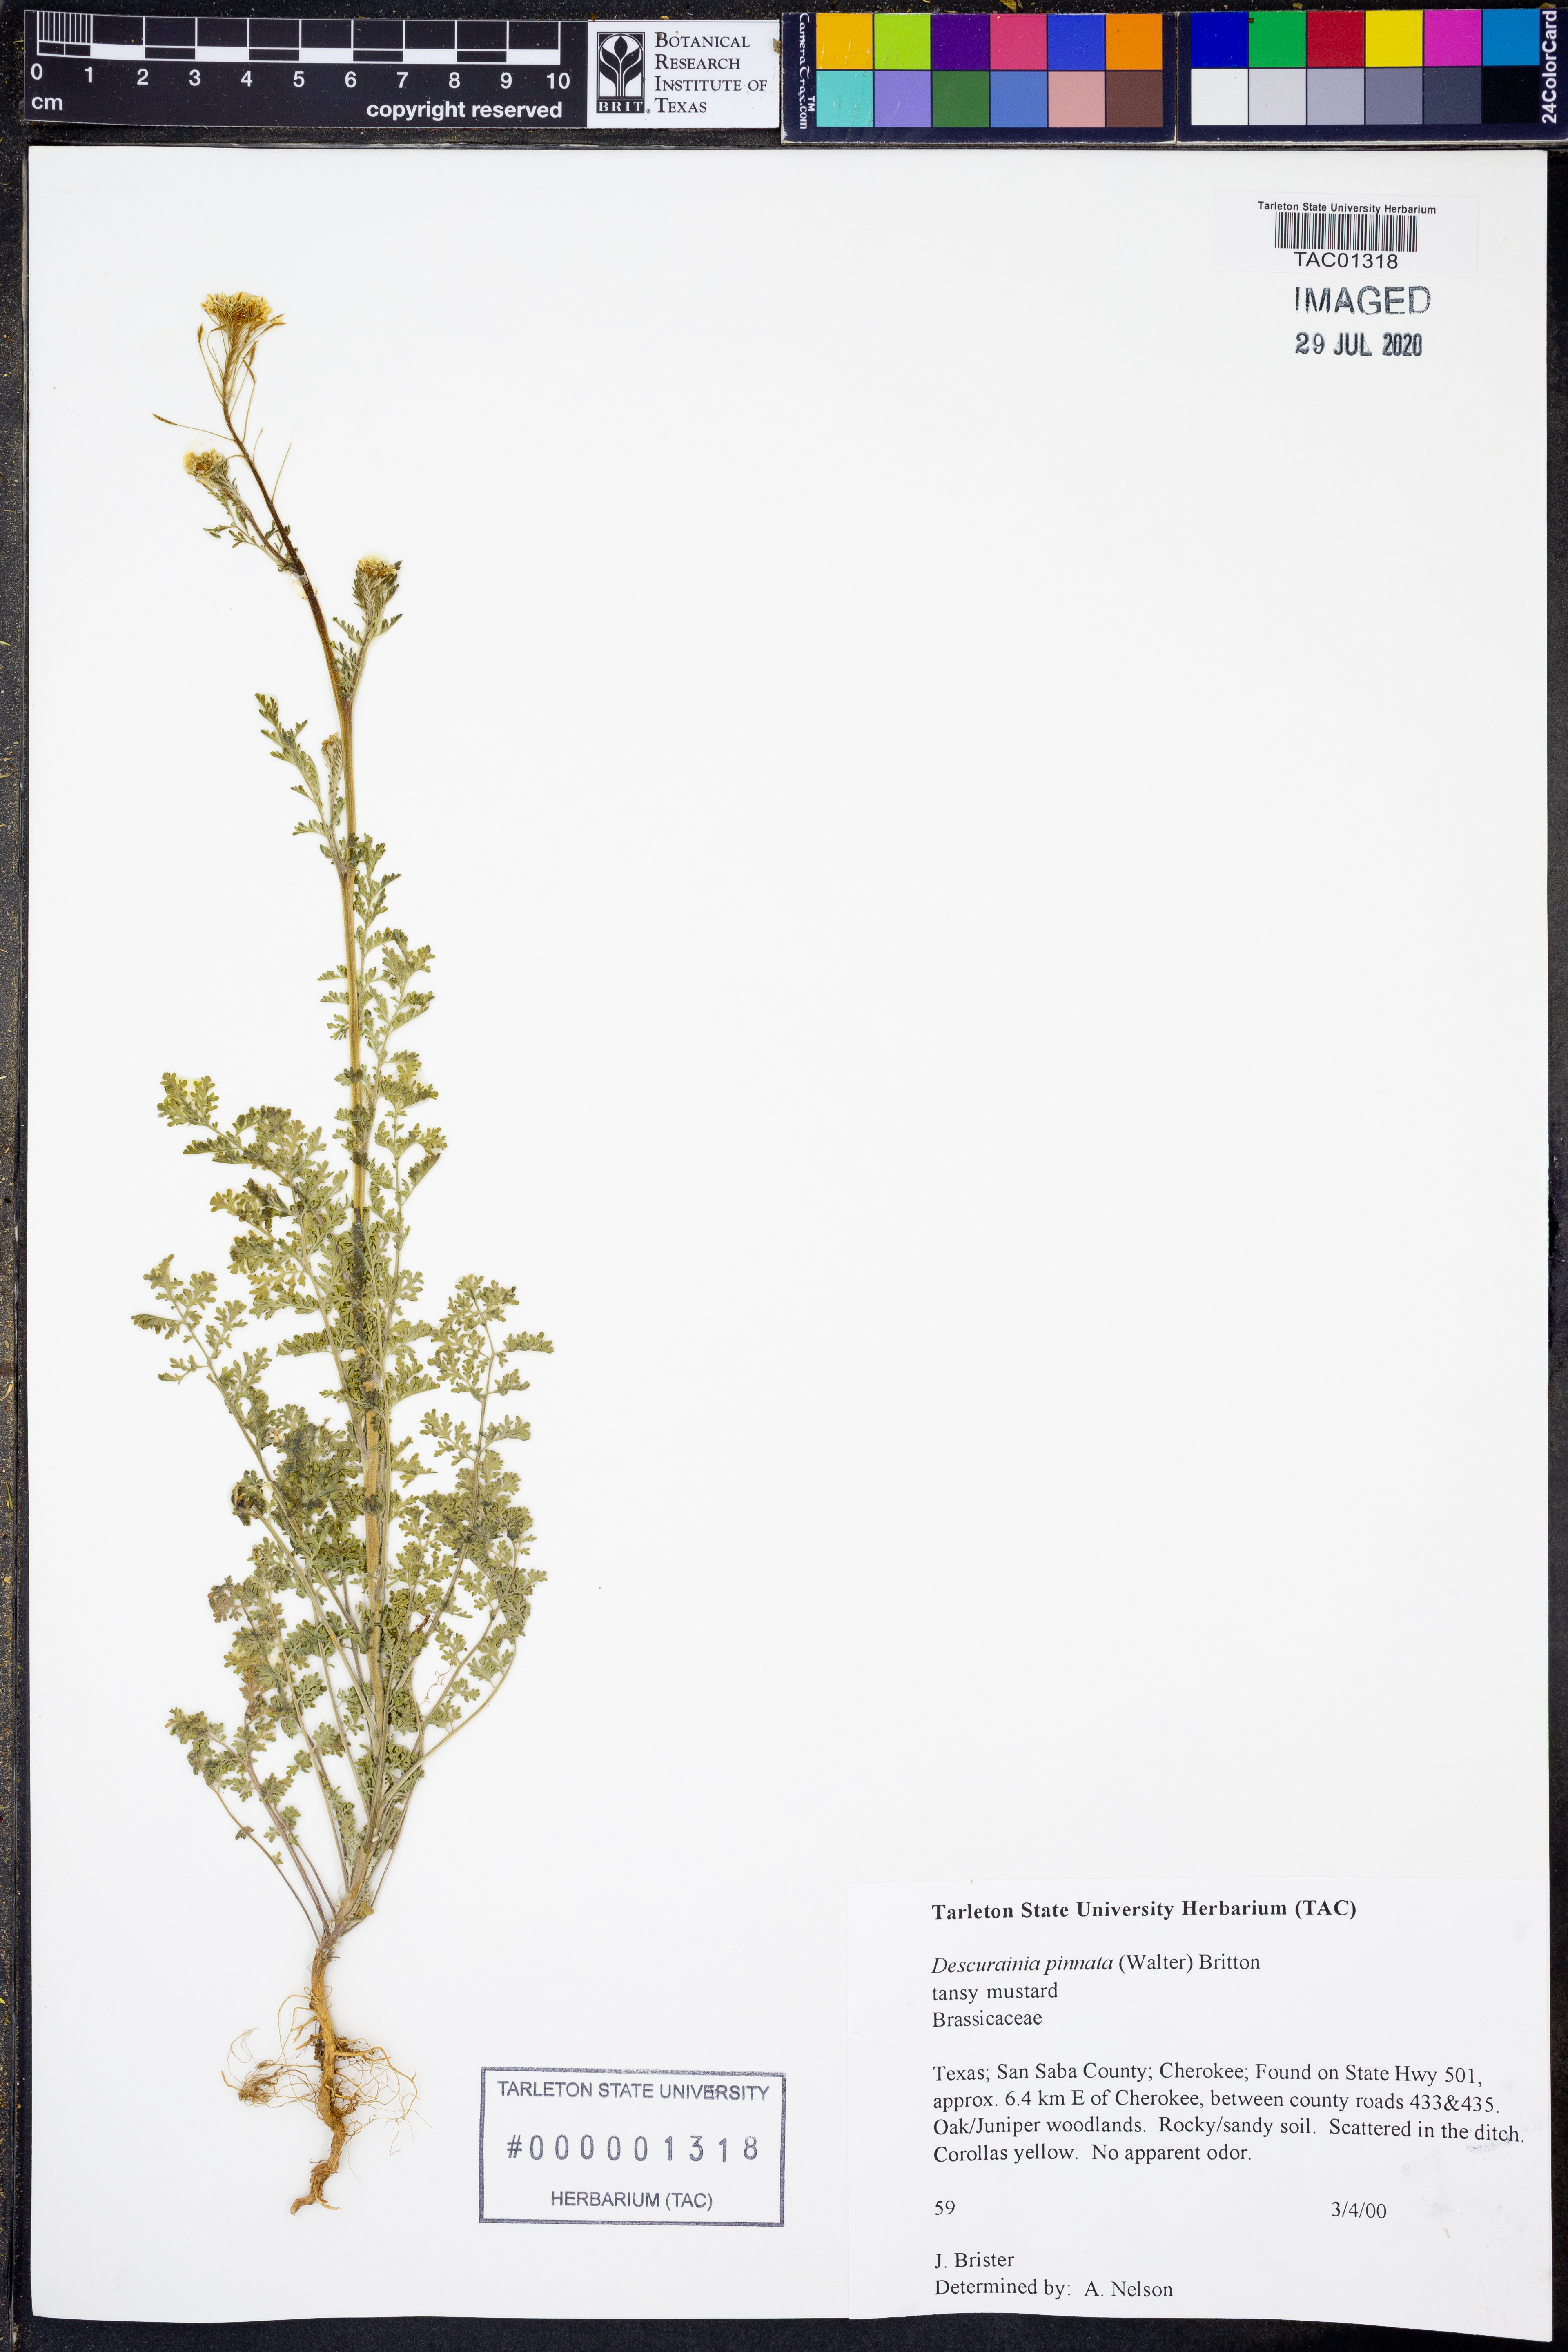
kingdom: Plantae
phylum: Tracheophyta
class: Magnoliopsida
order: Brassicales
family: Brassicaceae
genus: Descurainia
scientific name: Descurainia pinnata
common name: Western tansy mustard
